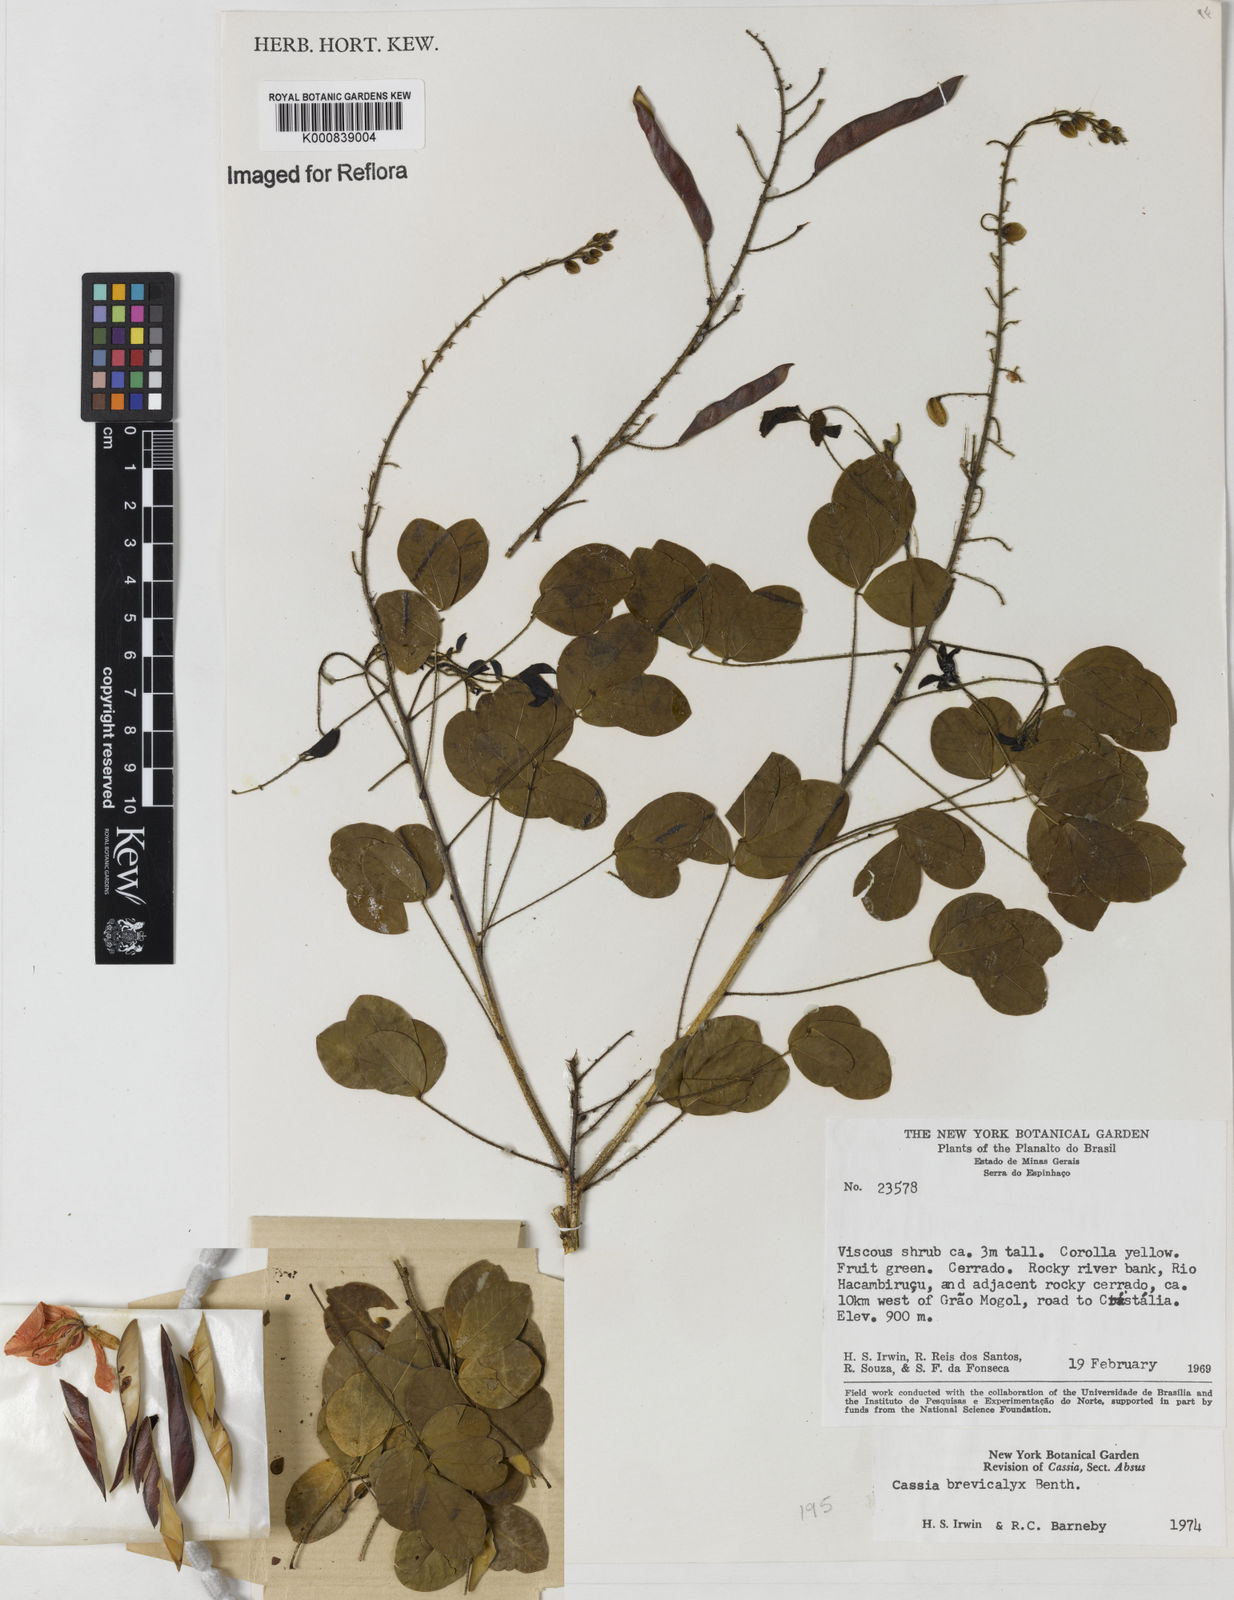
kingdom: Plantae
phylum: Tracheophyta
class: Magnoliopsida
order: Fabales
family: Fabaceae
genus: Chamaecrista
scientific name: Chamaecrista brevicalyx
